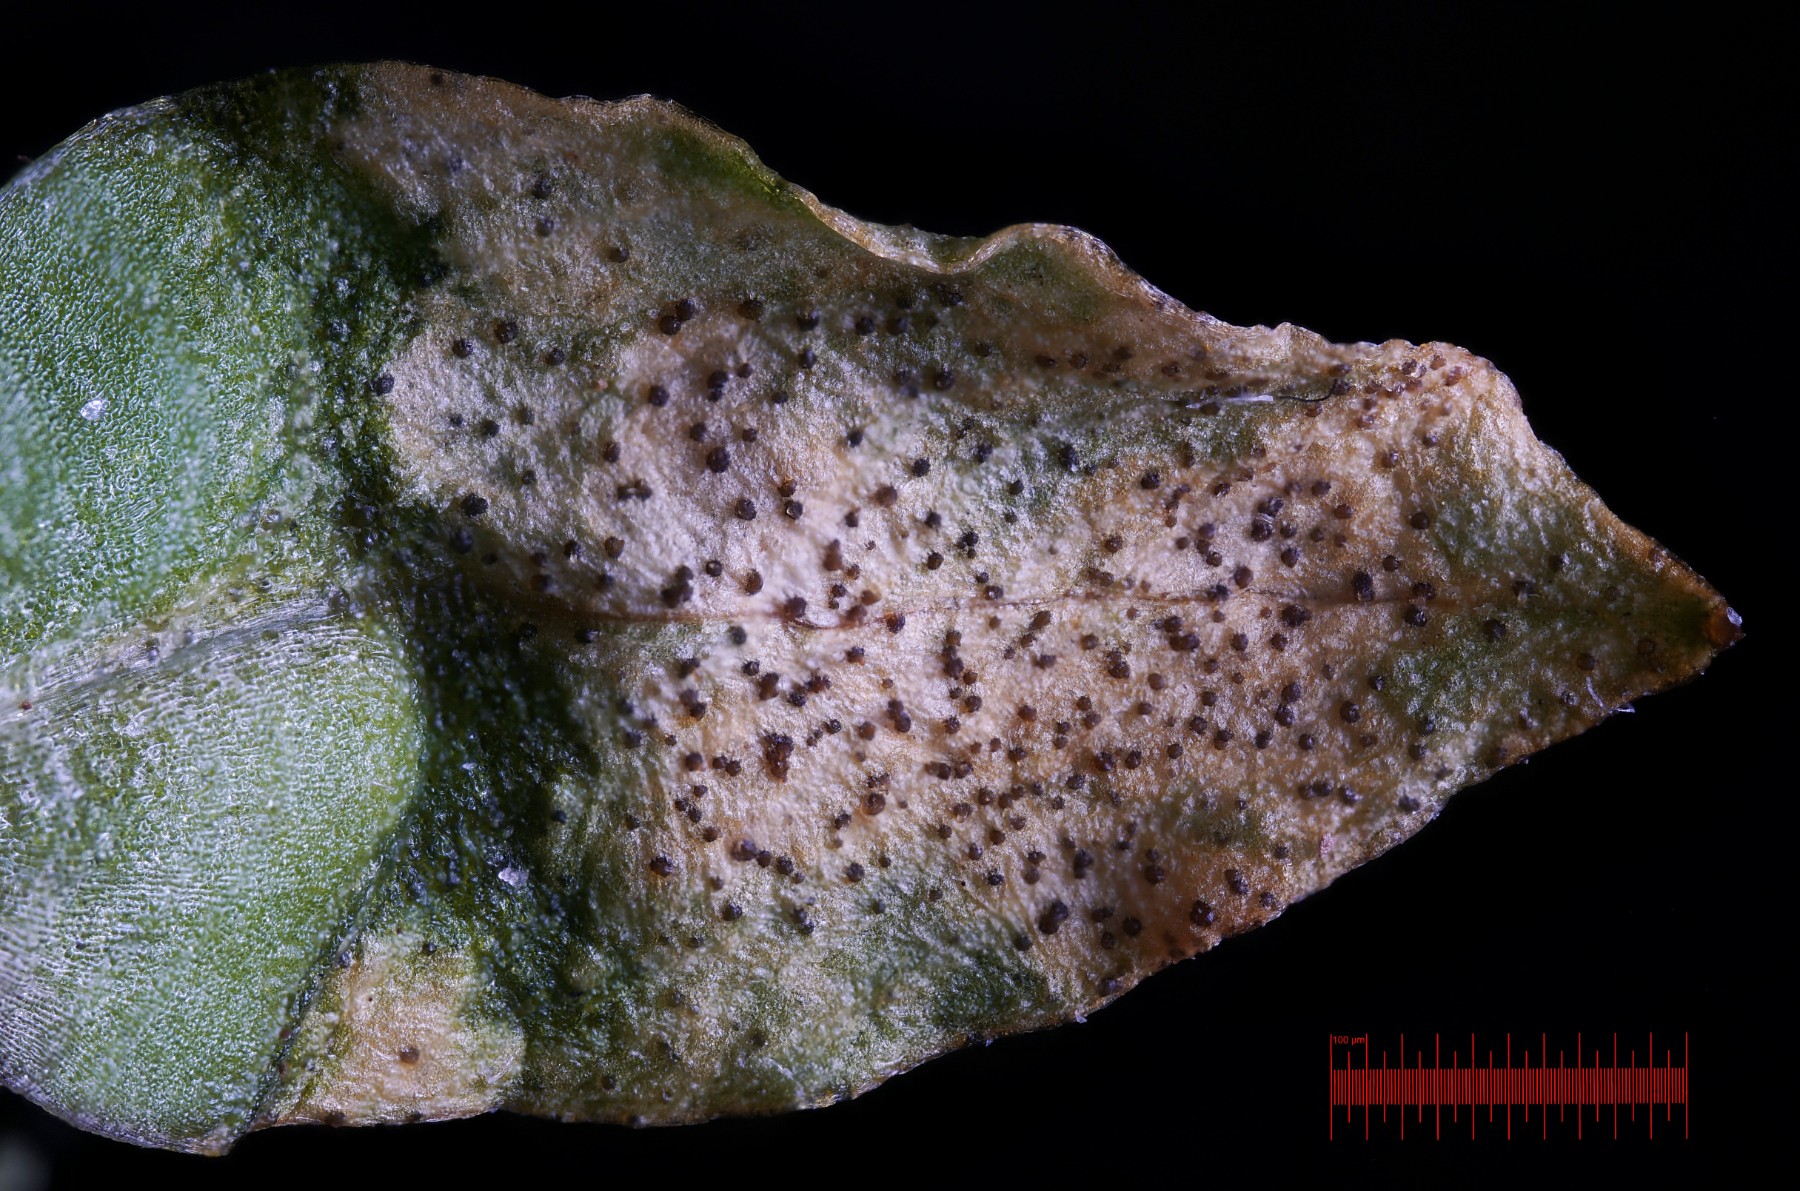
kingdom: Fungi
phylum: Ascomycota
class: Dothideomycetes
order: Mycosphaerellales
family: Mycosphaerellaceae
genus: Septoria
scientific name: Septoria stellariae
